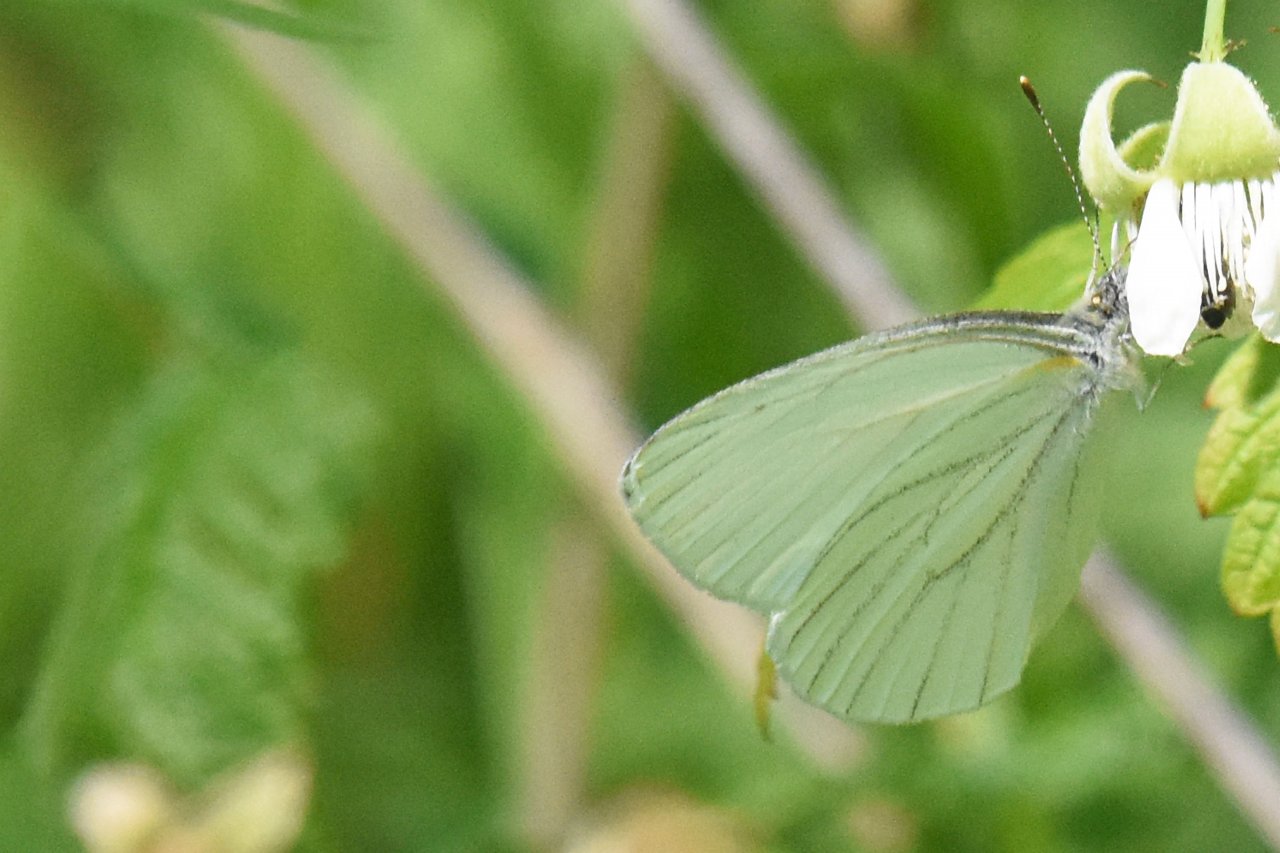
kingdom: Animalia
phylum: Arthropoda
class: Insecta
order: Lepidoptera
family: Pieridae
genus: Pieris
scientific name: Pieris oleracea
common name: Mustard White
